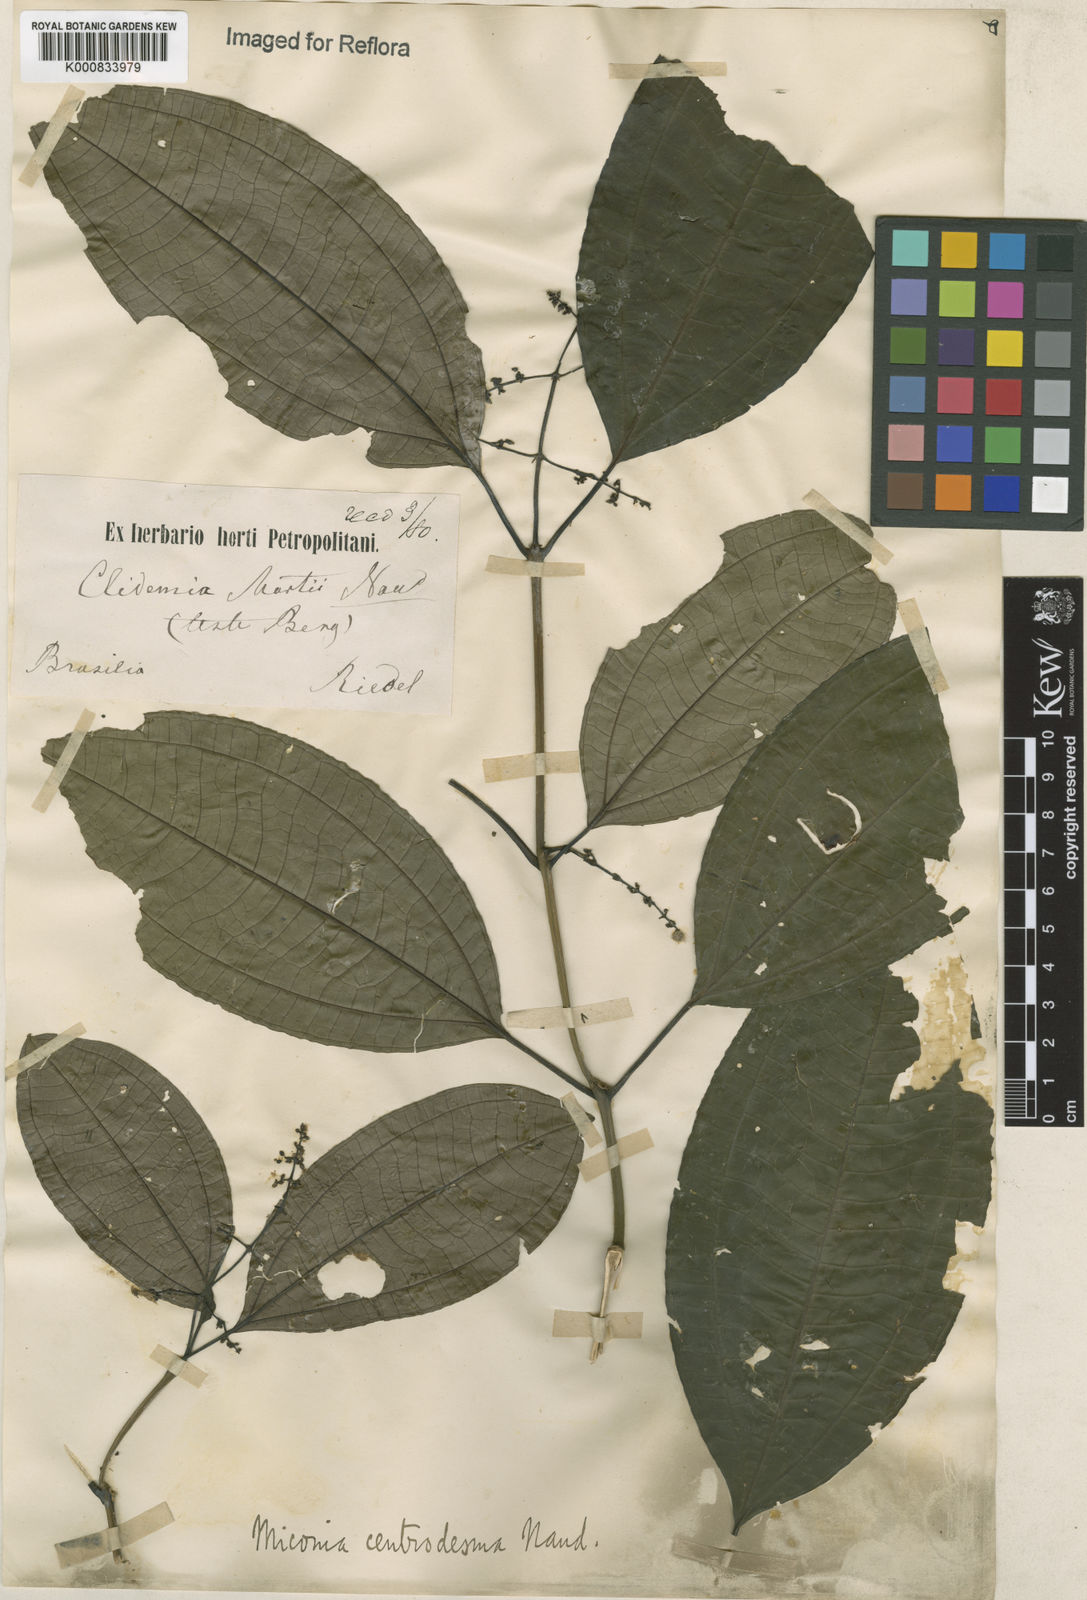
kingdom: Plantae
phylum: Tracheophyta
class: Magnoliopsida
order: Myrtales
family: Melastomataceae
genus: Miconia
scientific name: Miconia centrodesma
